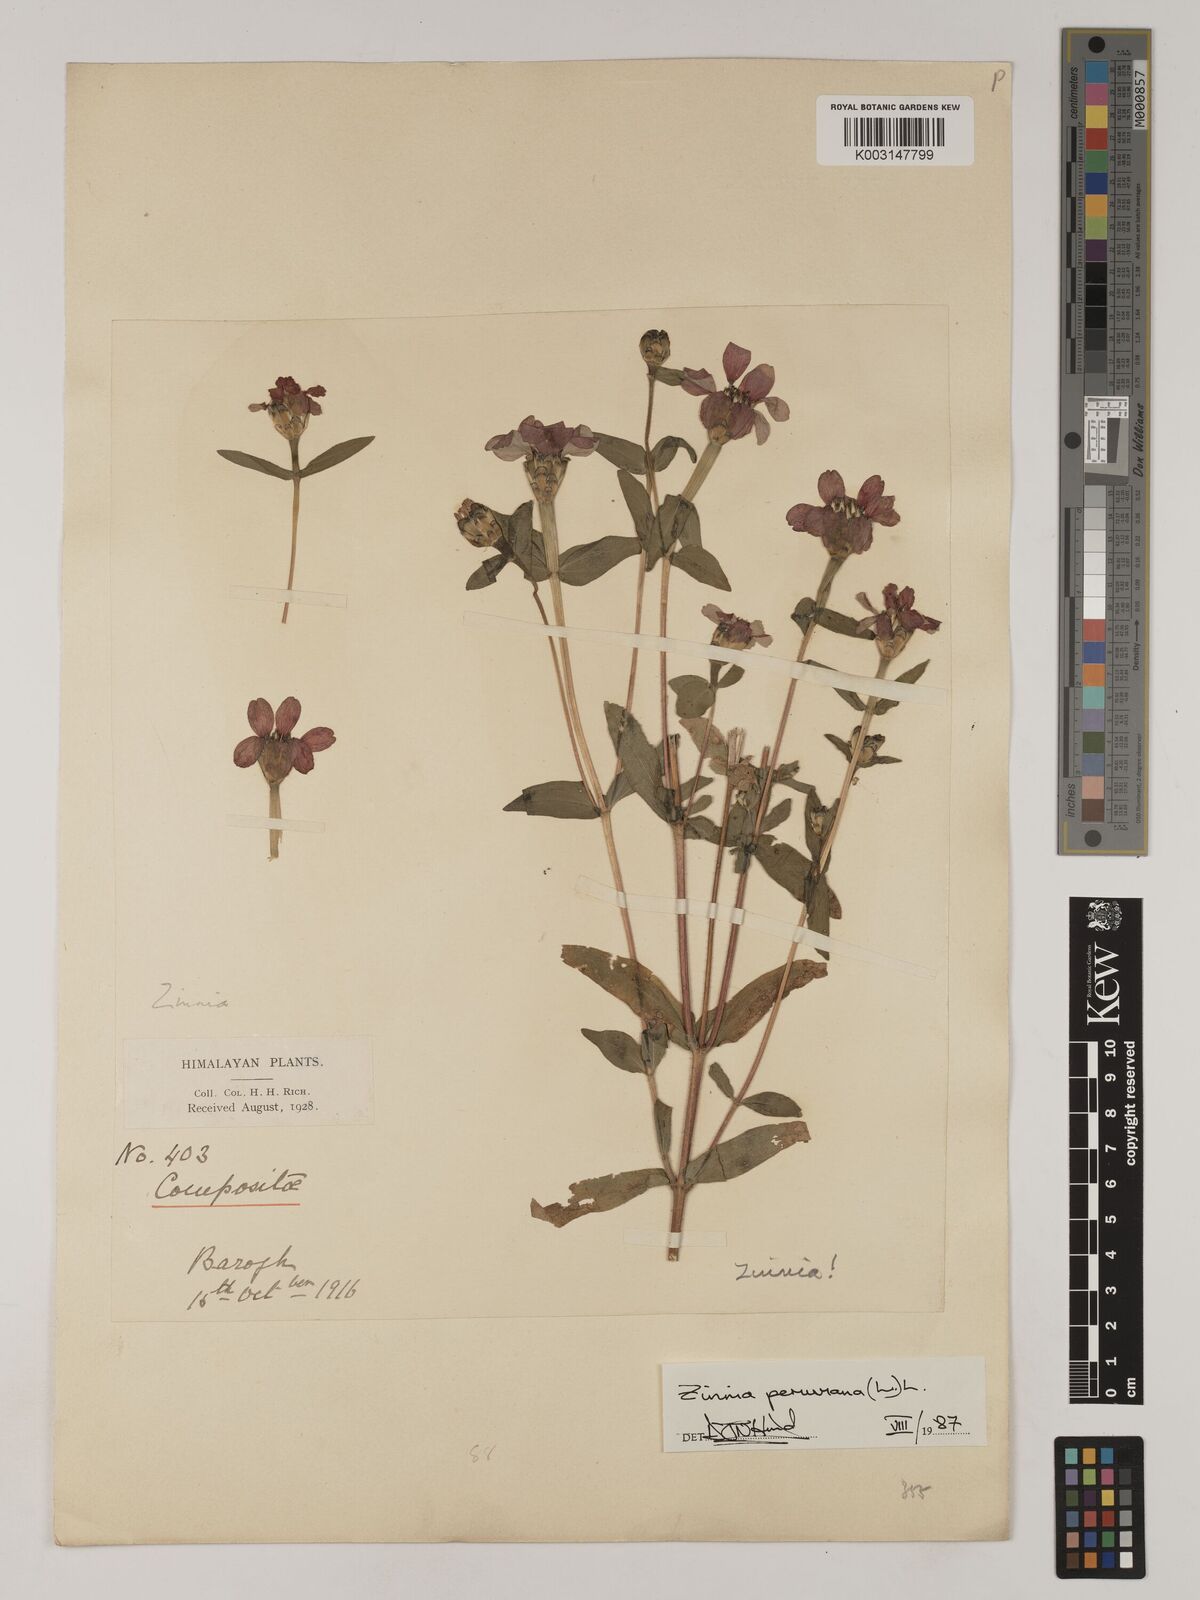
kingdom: Plantae
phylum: Tracheophyta
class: Magnoliopsida
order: Asterales
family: Asteraceae
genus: Zinnia
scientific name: Zinnia peruviana
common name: Peruvian zinnia
